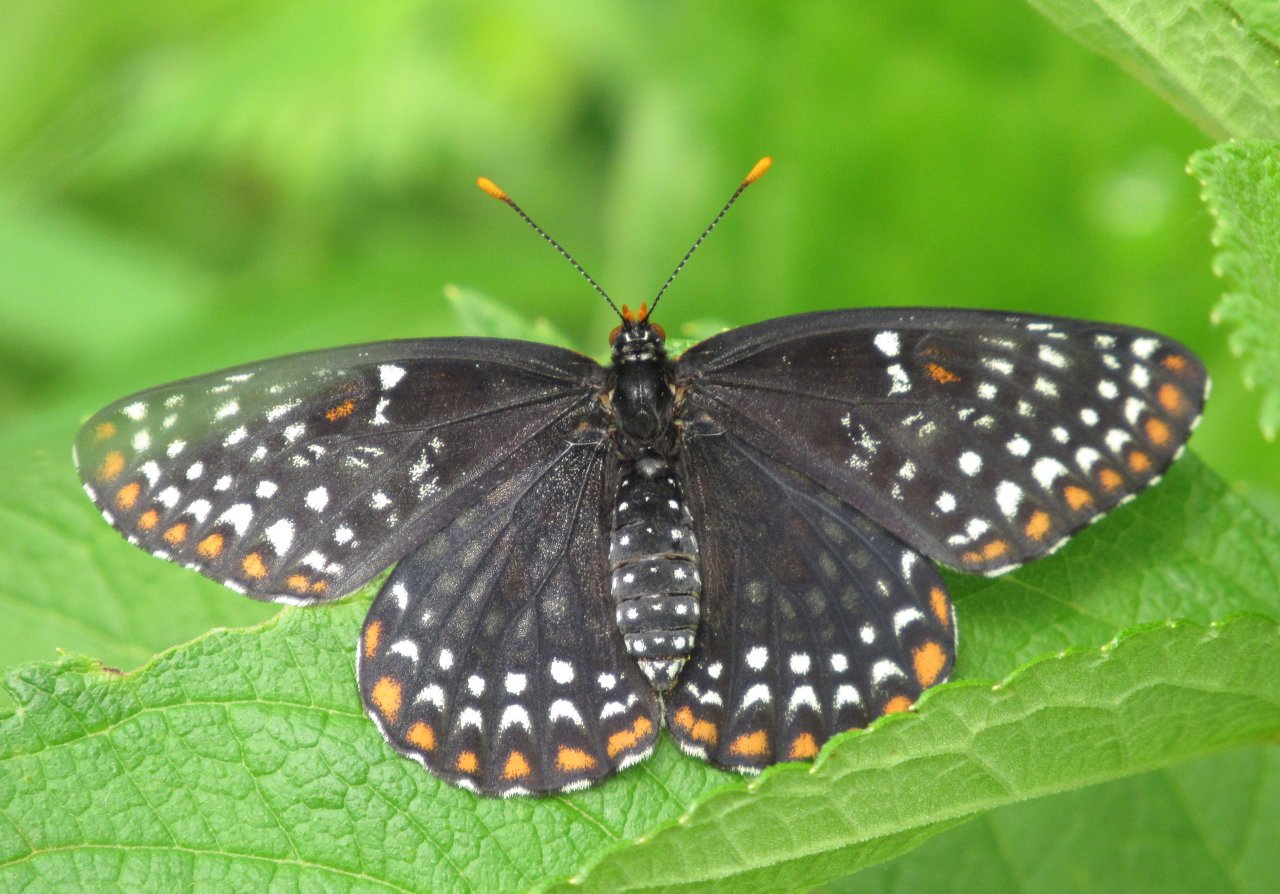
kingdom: Animalia
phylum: Arthropoda
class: Insecta
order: Lepidoptera
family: Nymphalidae
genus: Euphydryas
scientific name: Euphydryas phaeton
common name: Baltimore Checkerspot
